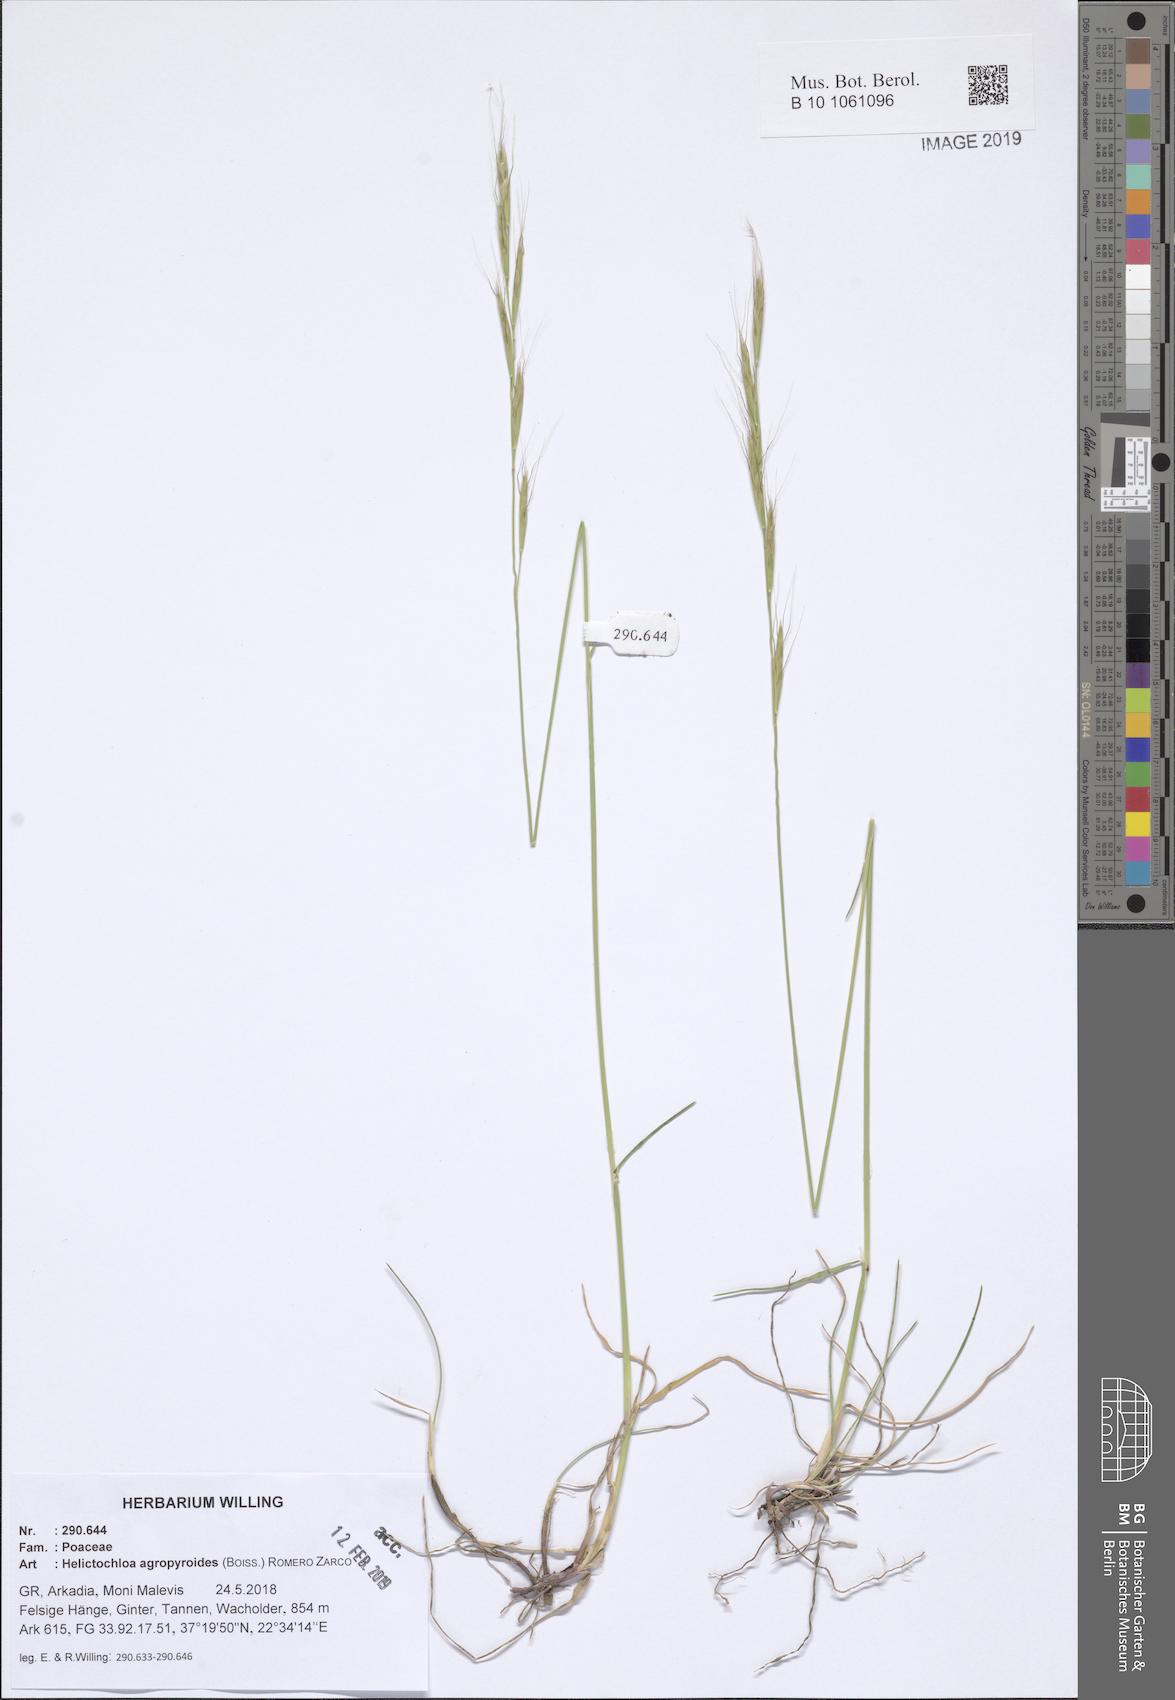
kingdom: Plantae
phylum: Tracheophyta
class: Liliopsida
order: Poales
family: Poaceae
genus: Helictochloa
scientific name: Helictochloa agropyroides
